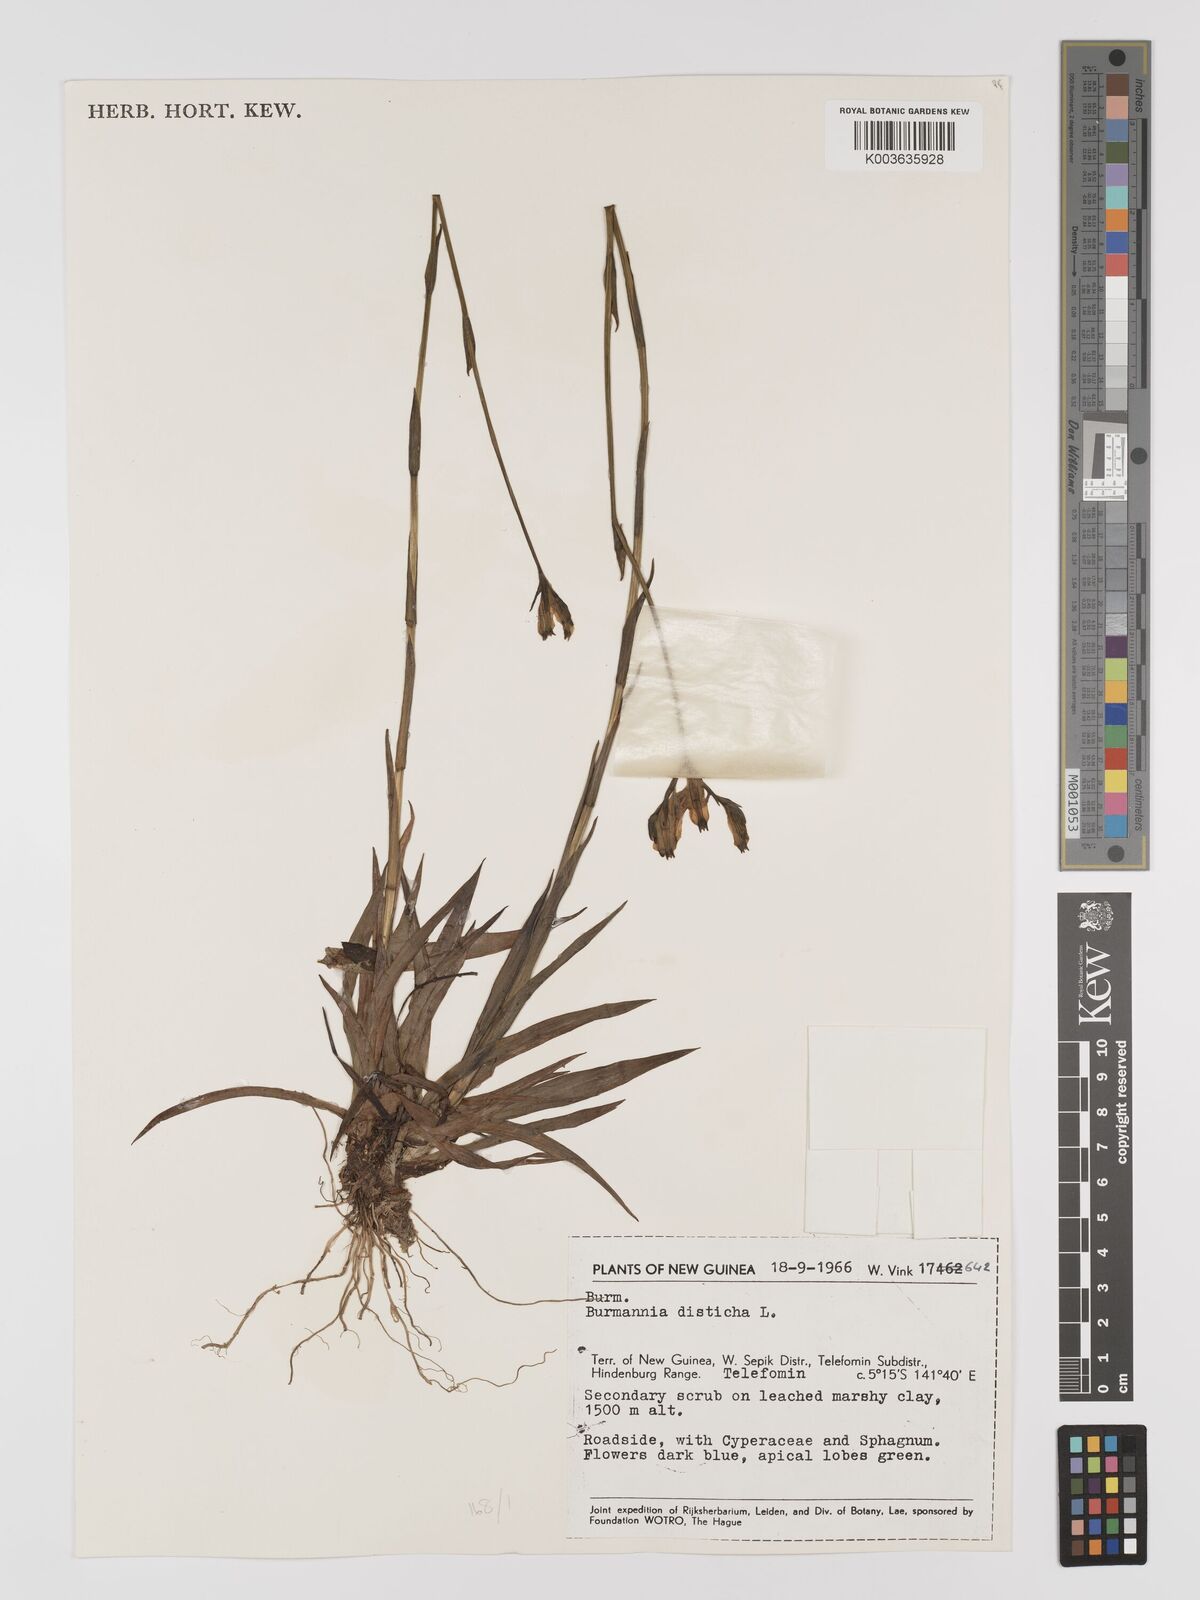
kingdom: Plantae
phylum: Tracheophyta
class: Liliopsida
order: Dioscoreales
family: Burmanniaceae
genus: Burmannia
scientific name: Burmannia disticha
